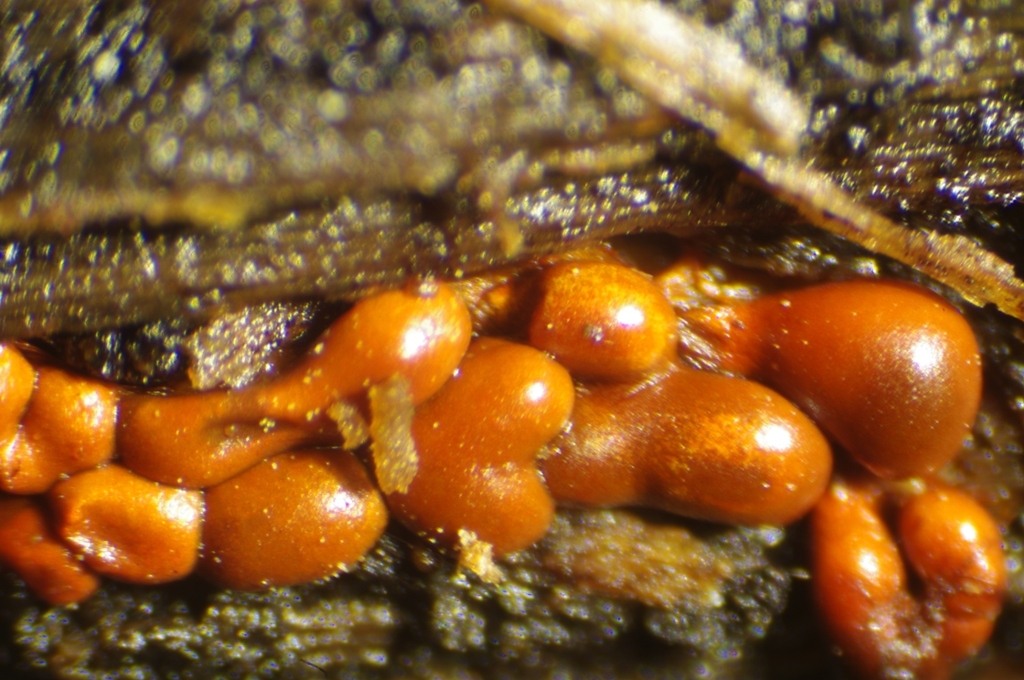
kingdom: Protozoa
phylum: Mycetozoa
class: Myxomycetes
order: Trichiales
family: Trichiaceae
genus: Metatrichia
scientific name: Metatrichia vesparia
